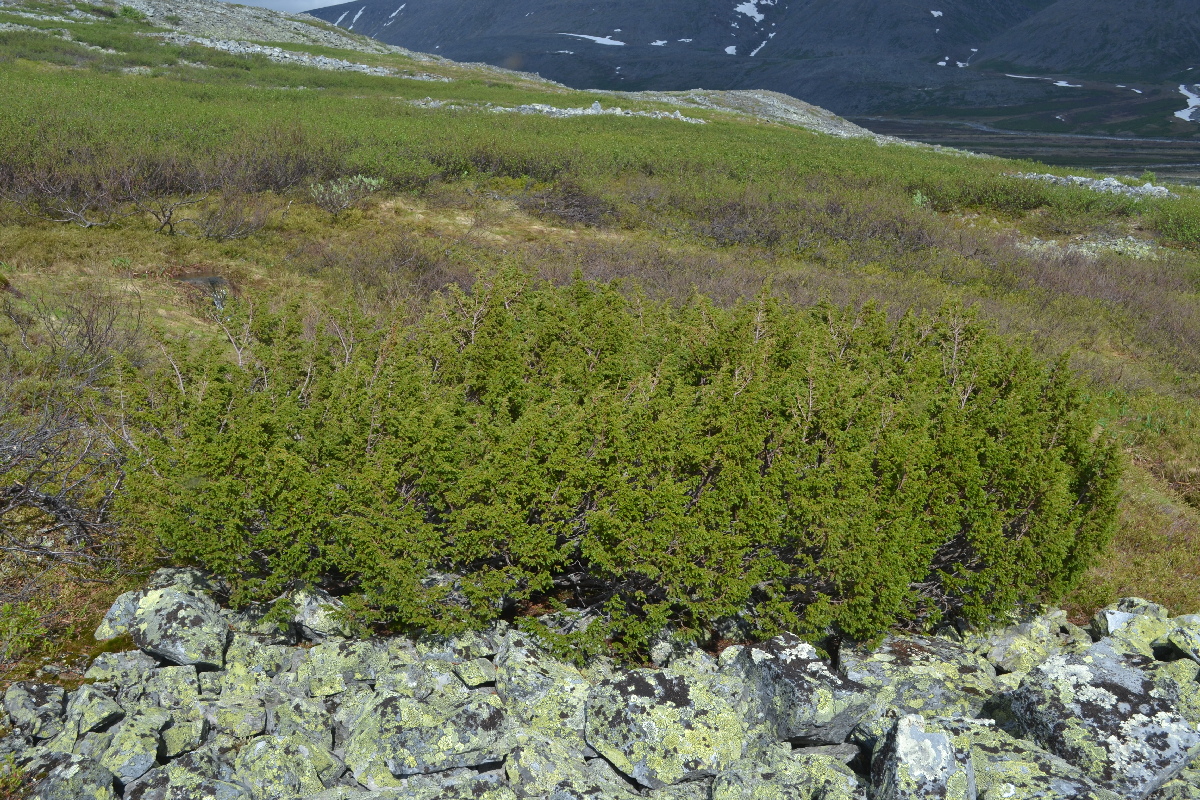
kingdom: Plantae
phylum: Tracheophyta
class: Pinopsida
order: Pinales
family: Cupressaceae
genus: Juniperus
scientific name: Juniperus communis
